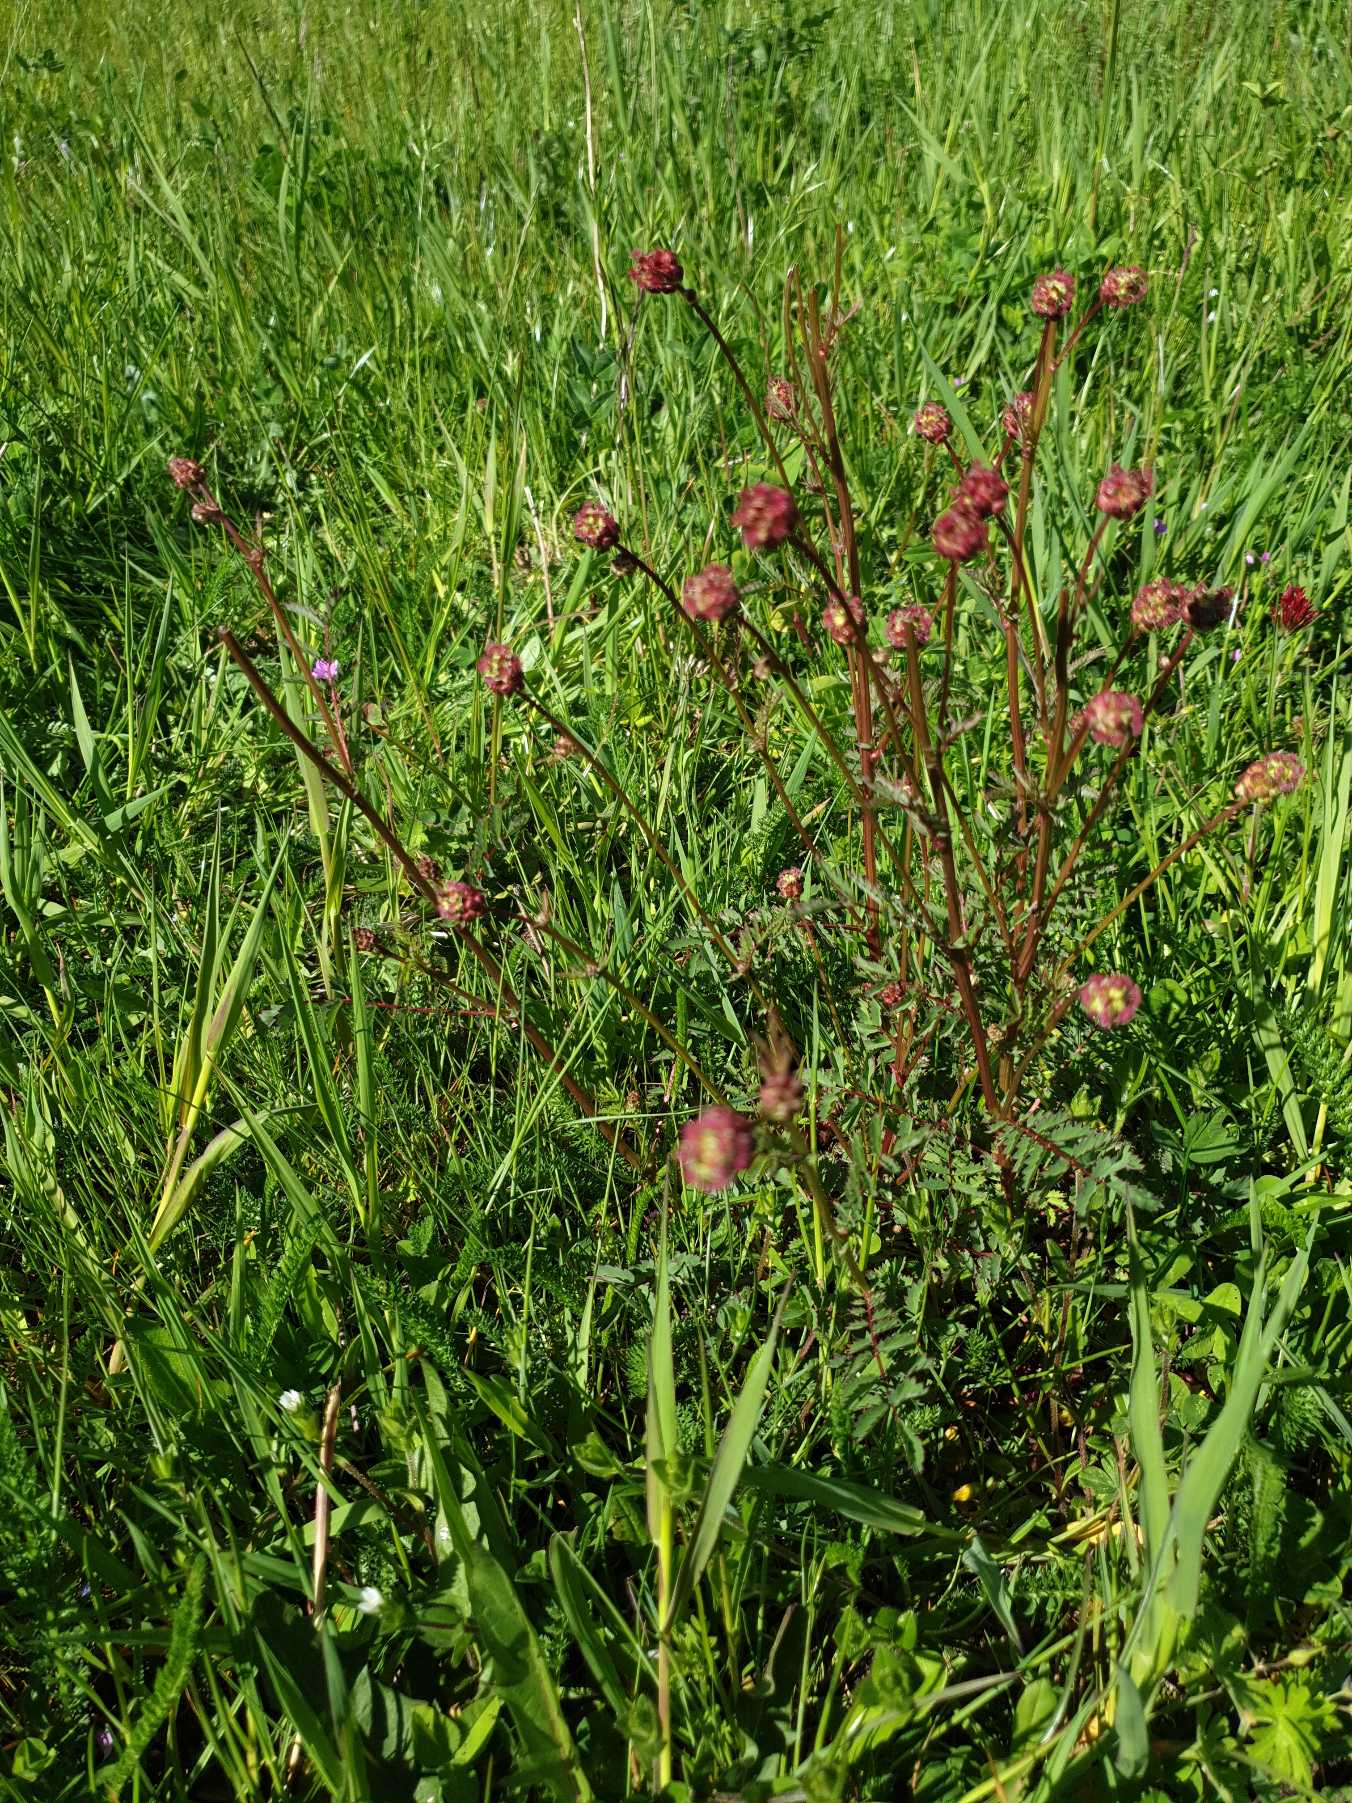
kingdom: Plantae
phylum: Tracheophyta
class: Magnoliopsida
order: Rosales
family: Rosaceae
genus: Poterium
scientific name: Poterium sanguisorba
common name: Blodstillende bibernelle
